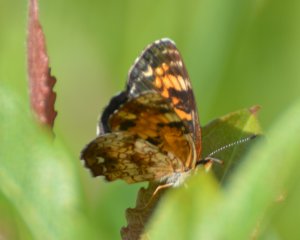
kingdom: Animalia
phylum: Arthropoda
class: Insecta
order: Lepidoptera
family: Nymphalidae
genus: Chlosyne
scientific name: Chlosyne nycteis
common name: Silvery Checkerspot
